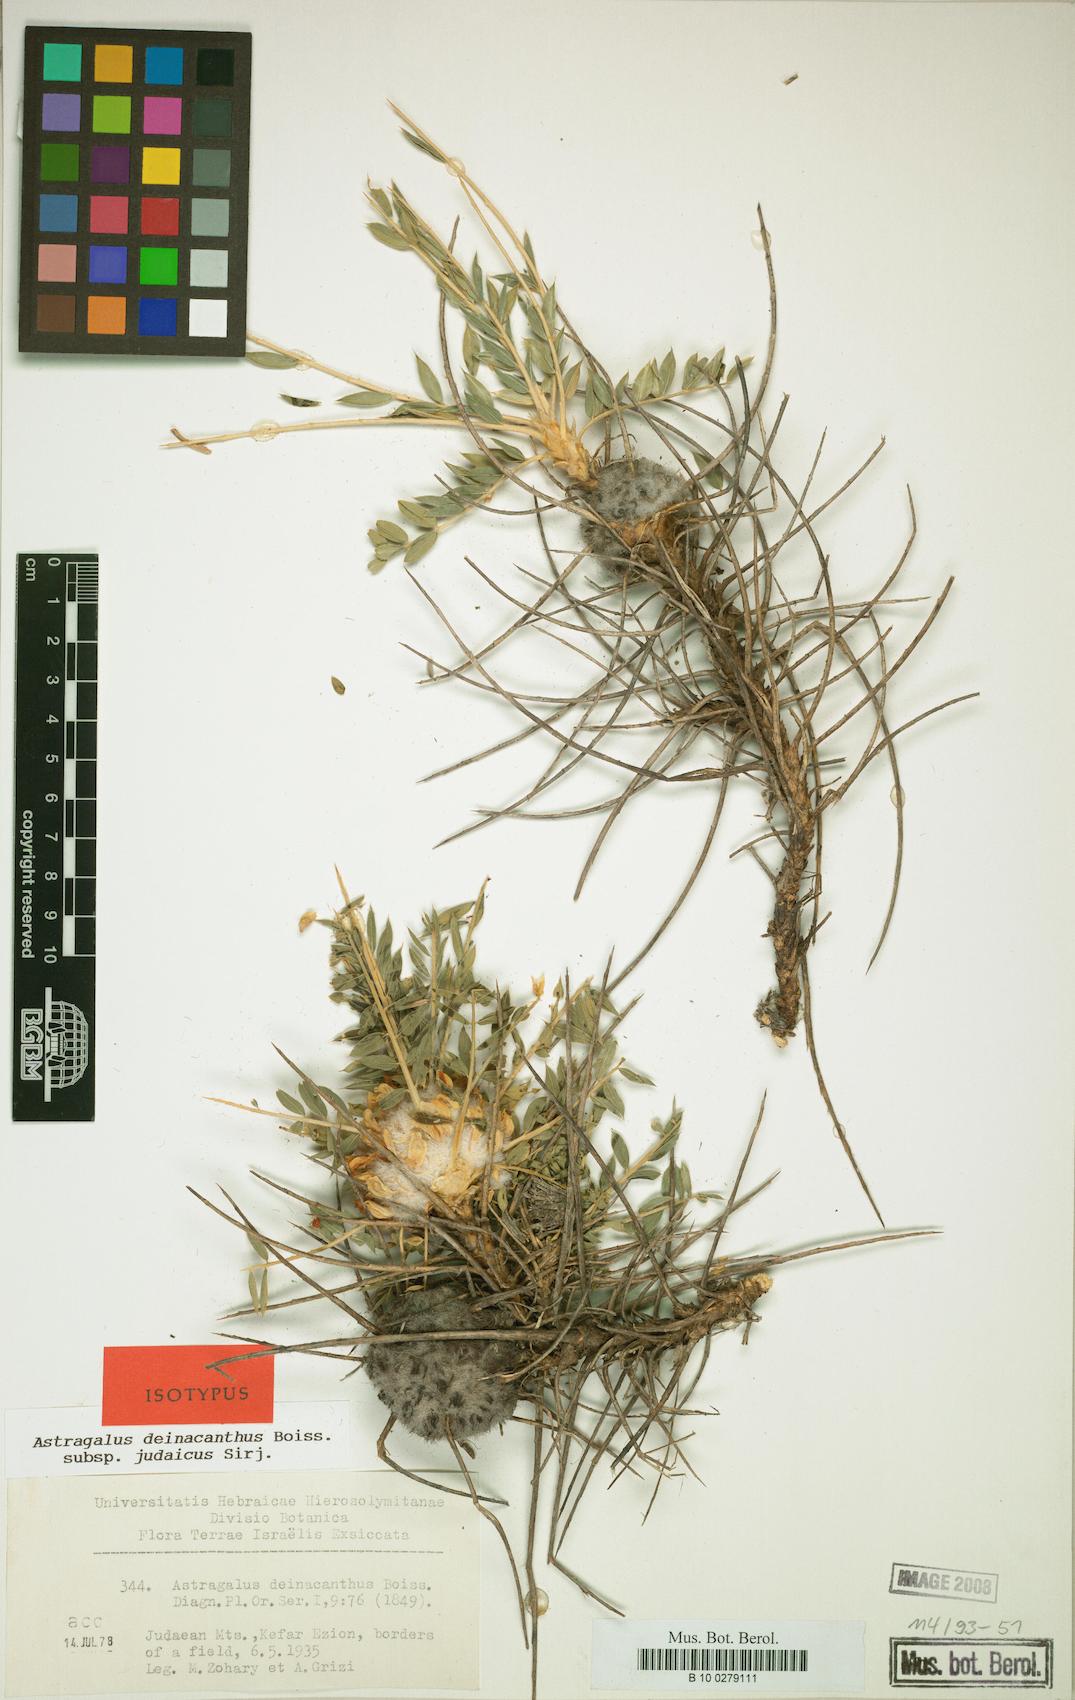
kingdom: Plantae
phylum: Tracheophyta
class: Magnoliopsida
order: Fabales
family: Fabaceae
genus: Astragalus
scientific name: Astragalus oleifolius
